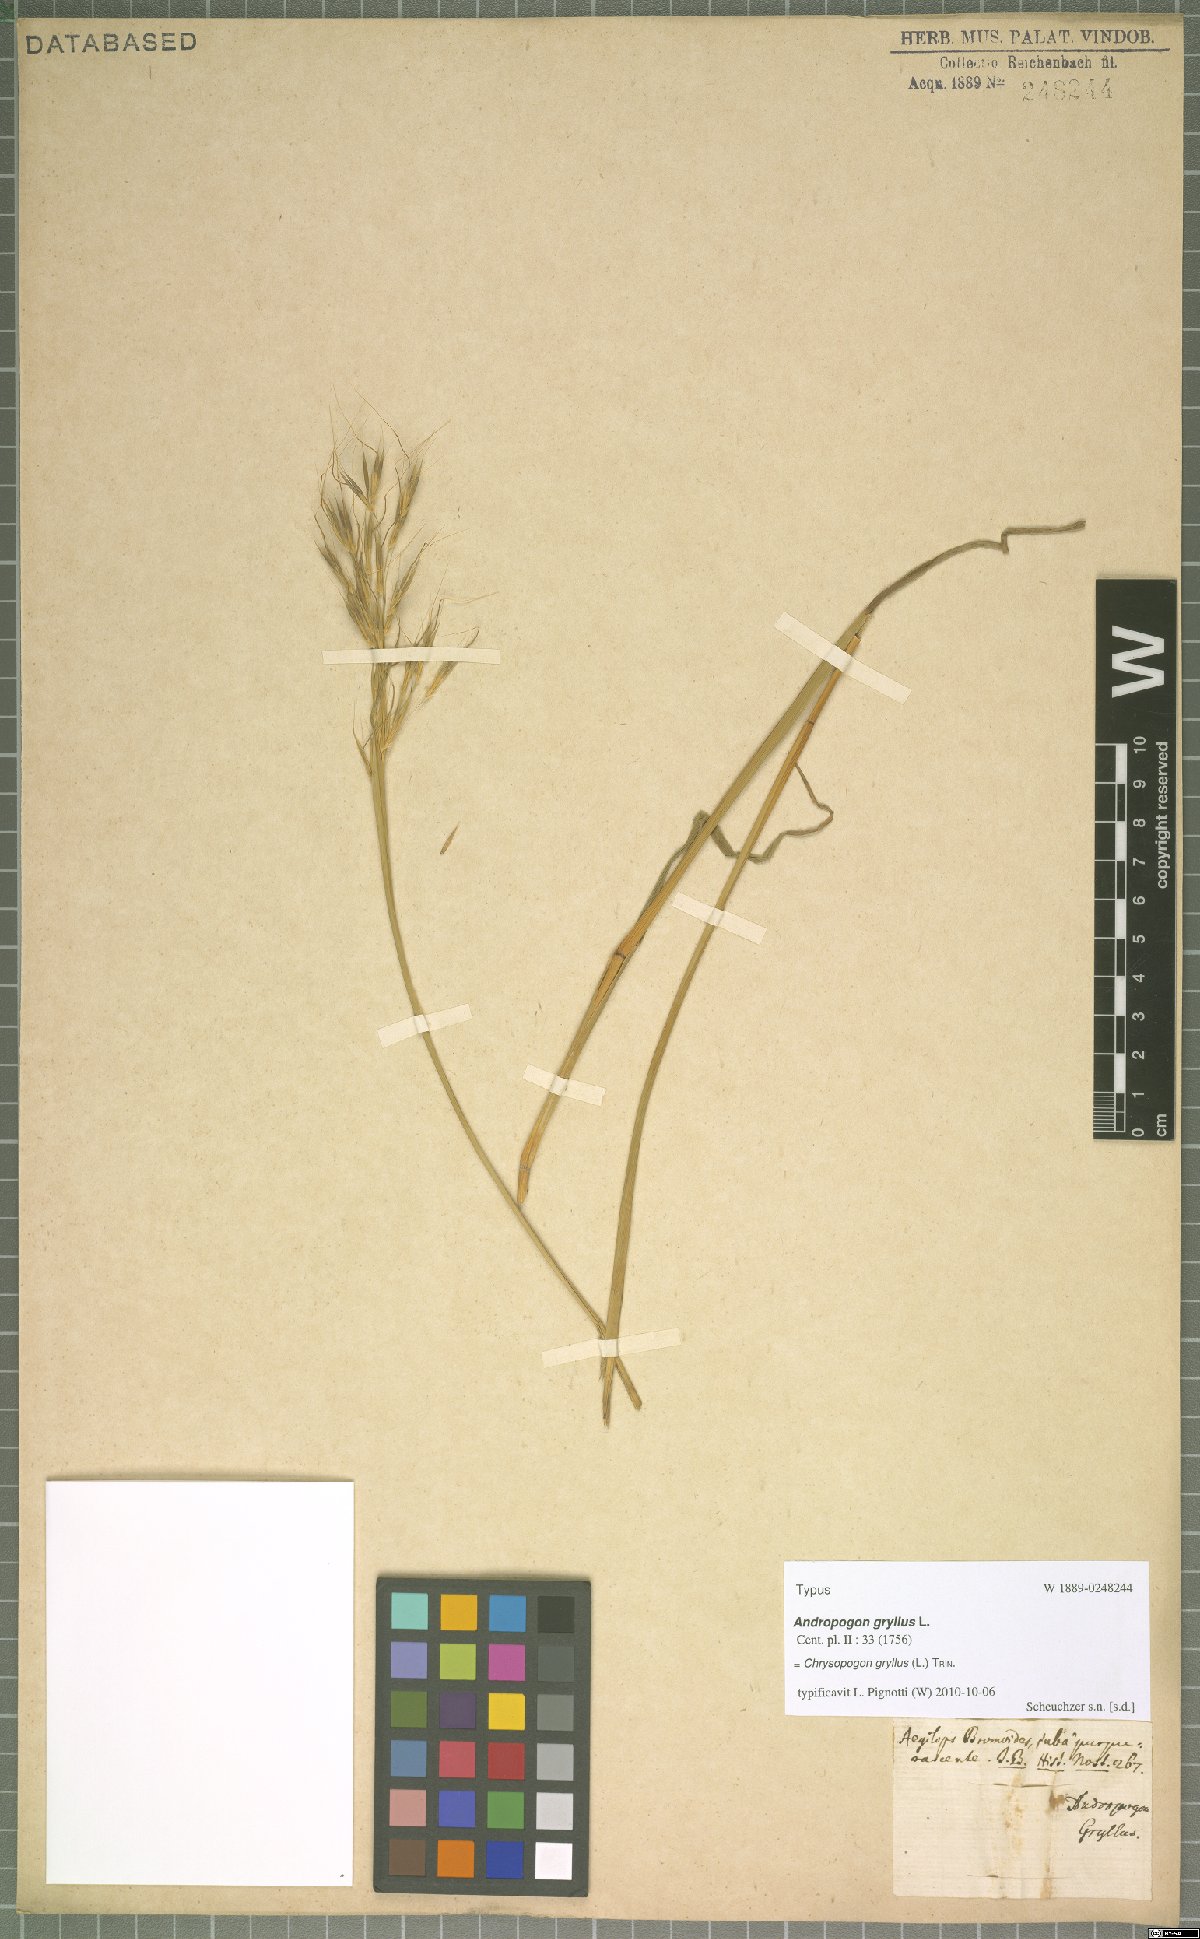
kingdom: Plantae
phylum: Tracheophyta
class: Liliopsida
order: Poales
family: Poaceae
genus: Chrysopogon
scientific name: Chrysopogon gryllus
